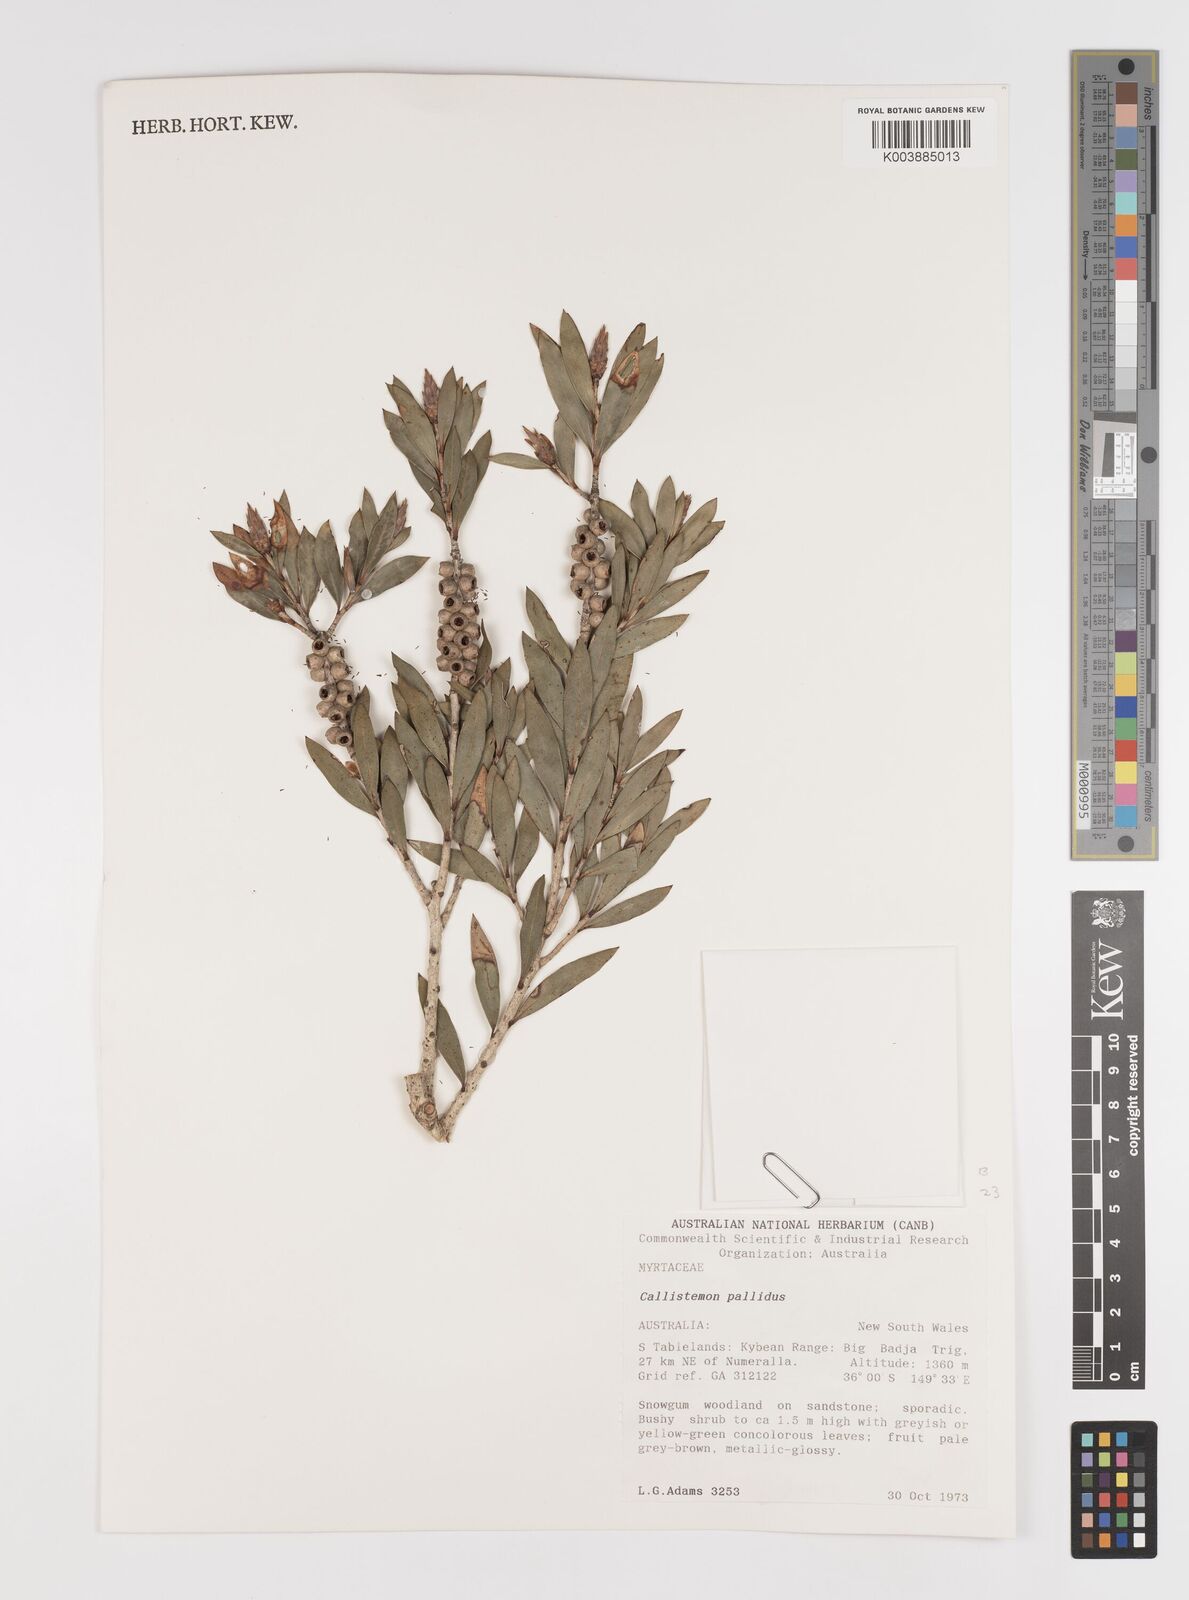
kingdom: Plantae
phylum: Tracheophyta
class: Magnoliopsida
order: Myrtales
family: Myrtaceae
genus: Melaleuca
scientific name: Melaleuca pallida
